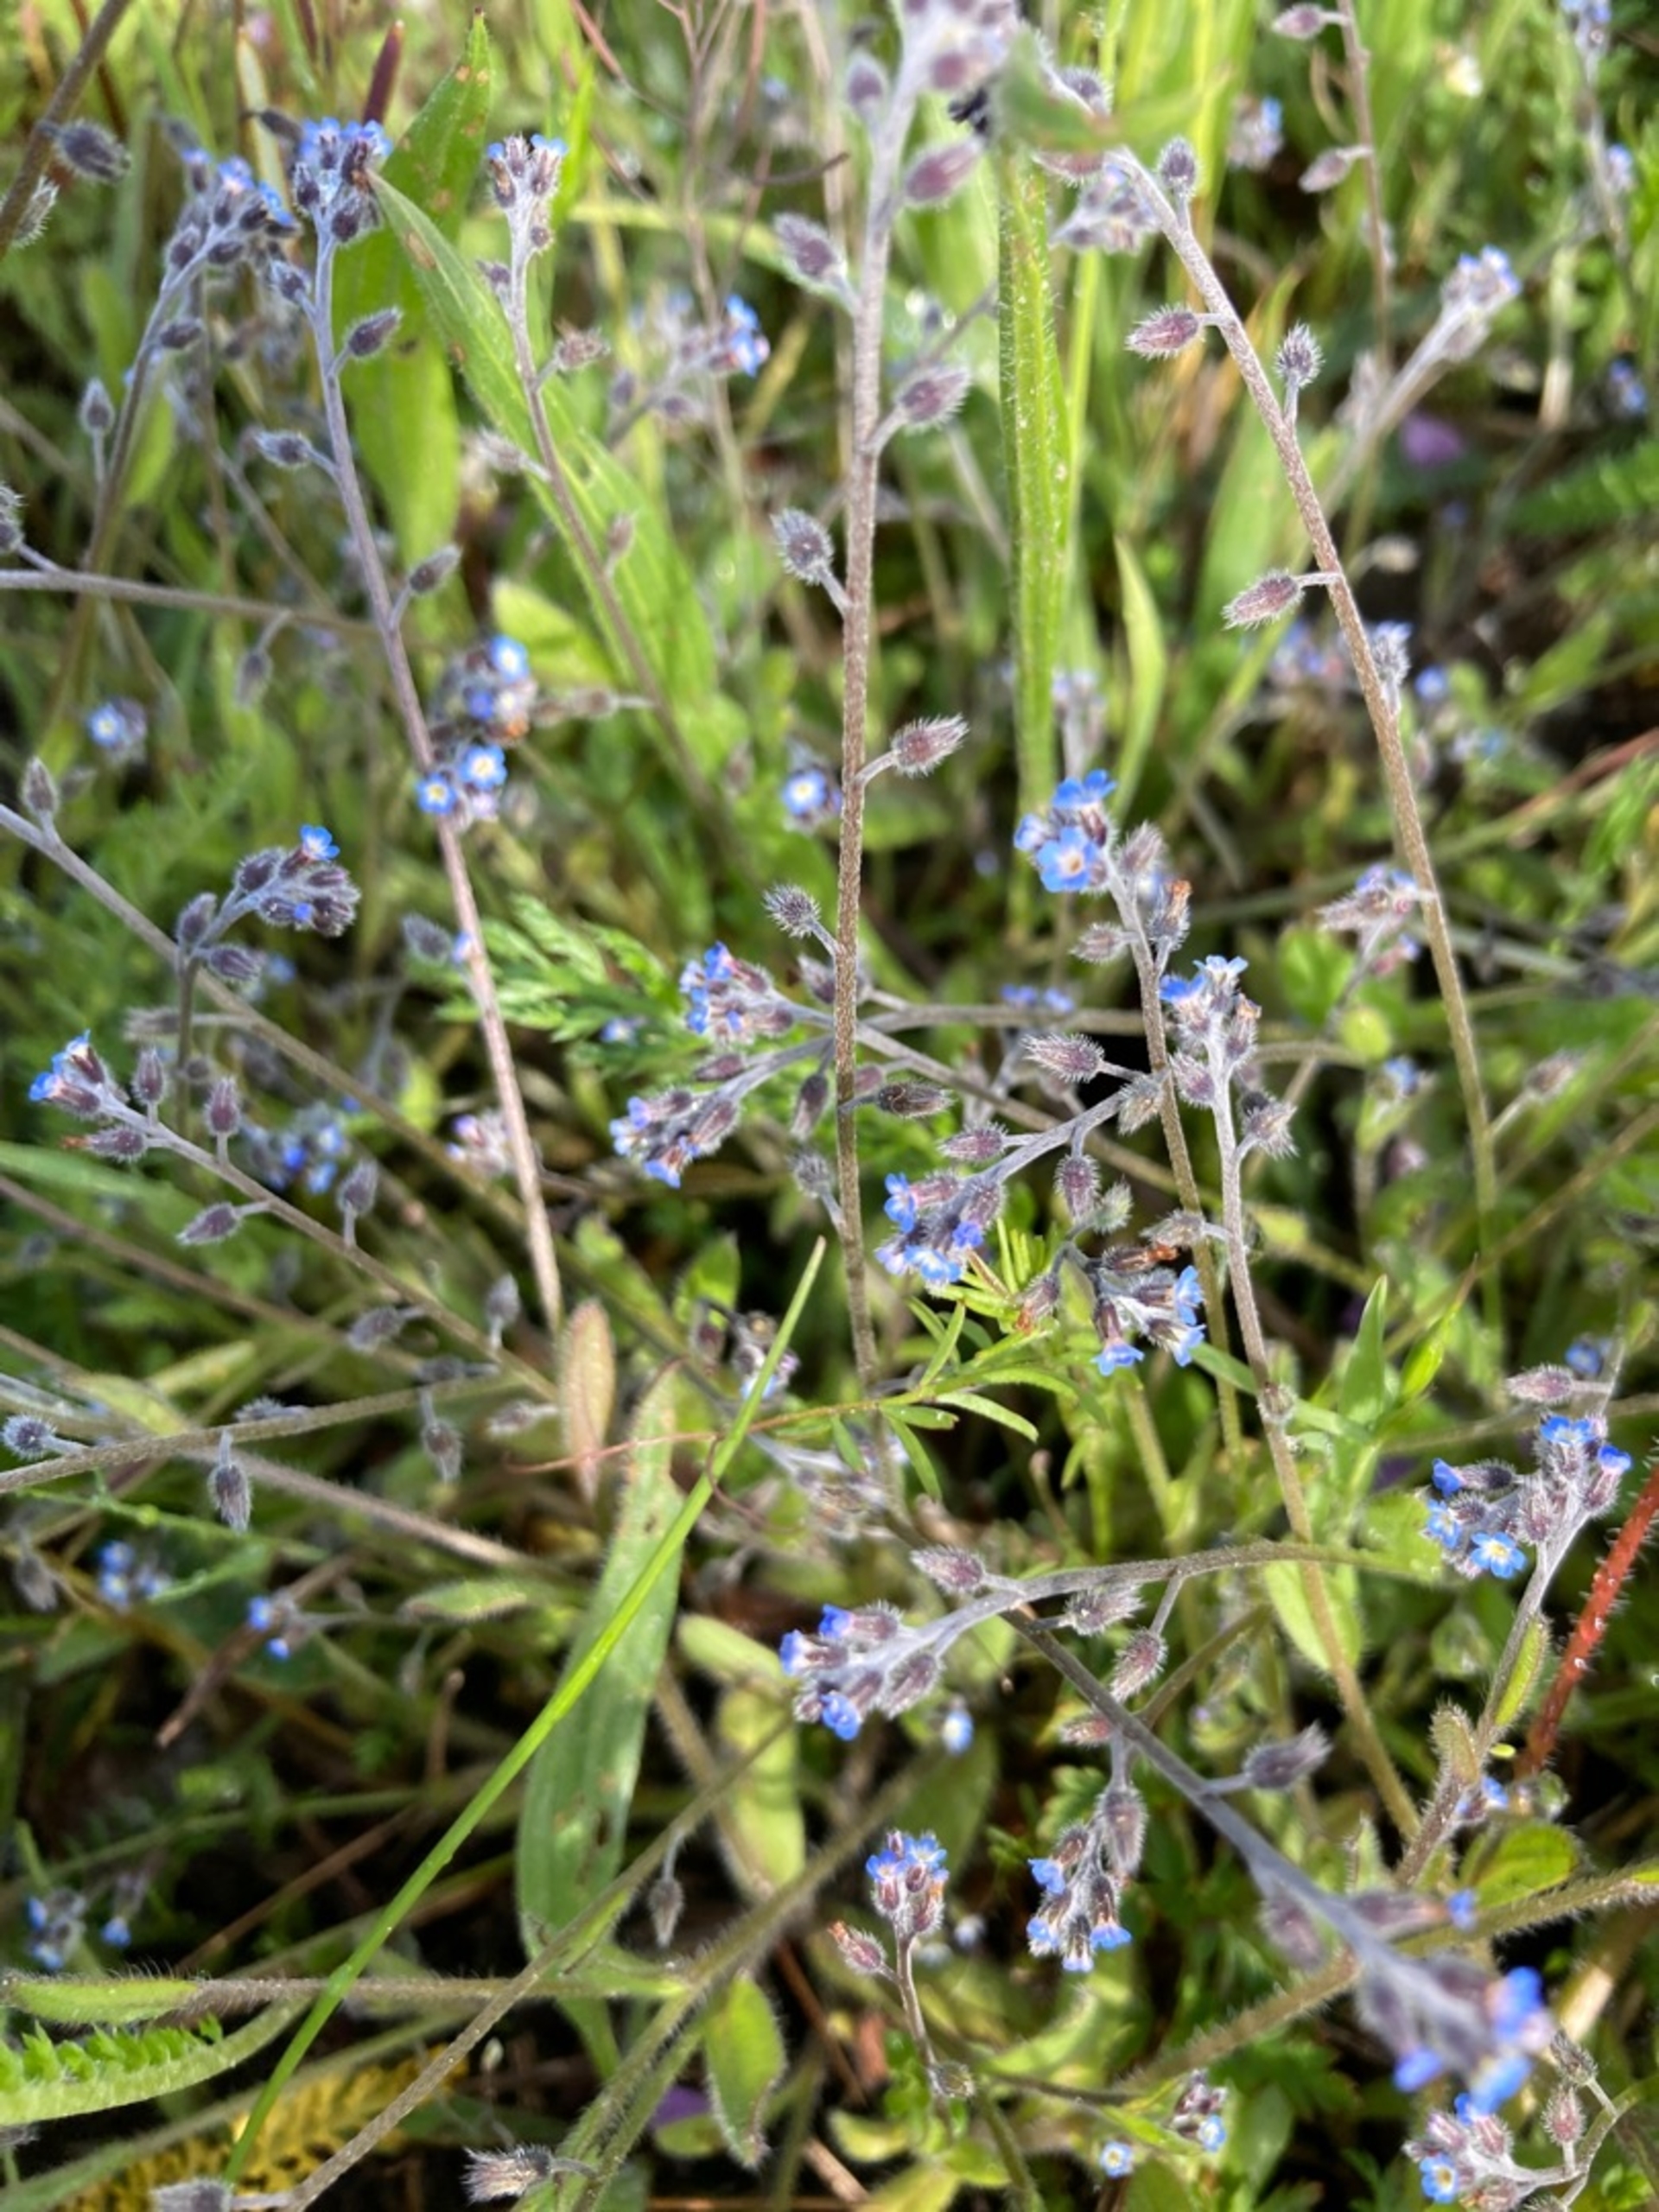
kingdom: Plantae
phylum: Tracheophyta
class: Magnoliopsida
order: Boraginales
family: Boraginaceae
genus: Myosotis
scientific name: Myosotis ramosissima
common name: Bakke-forglemmigej
